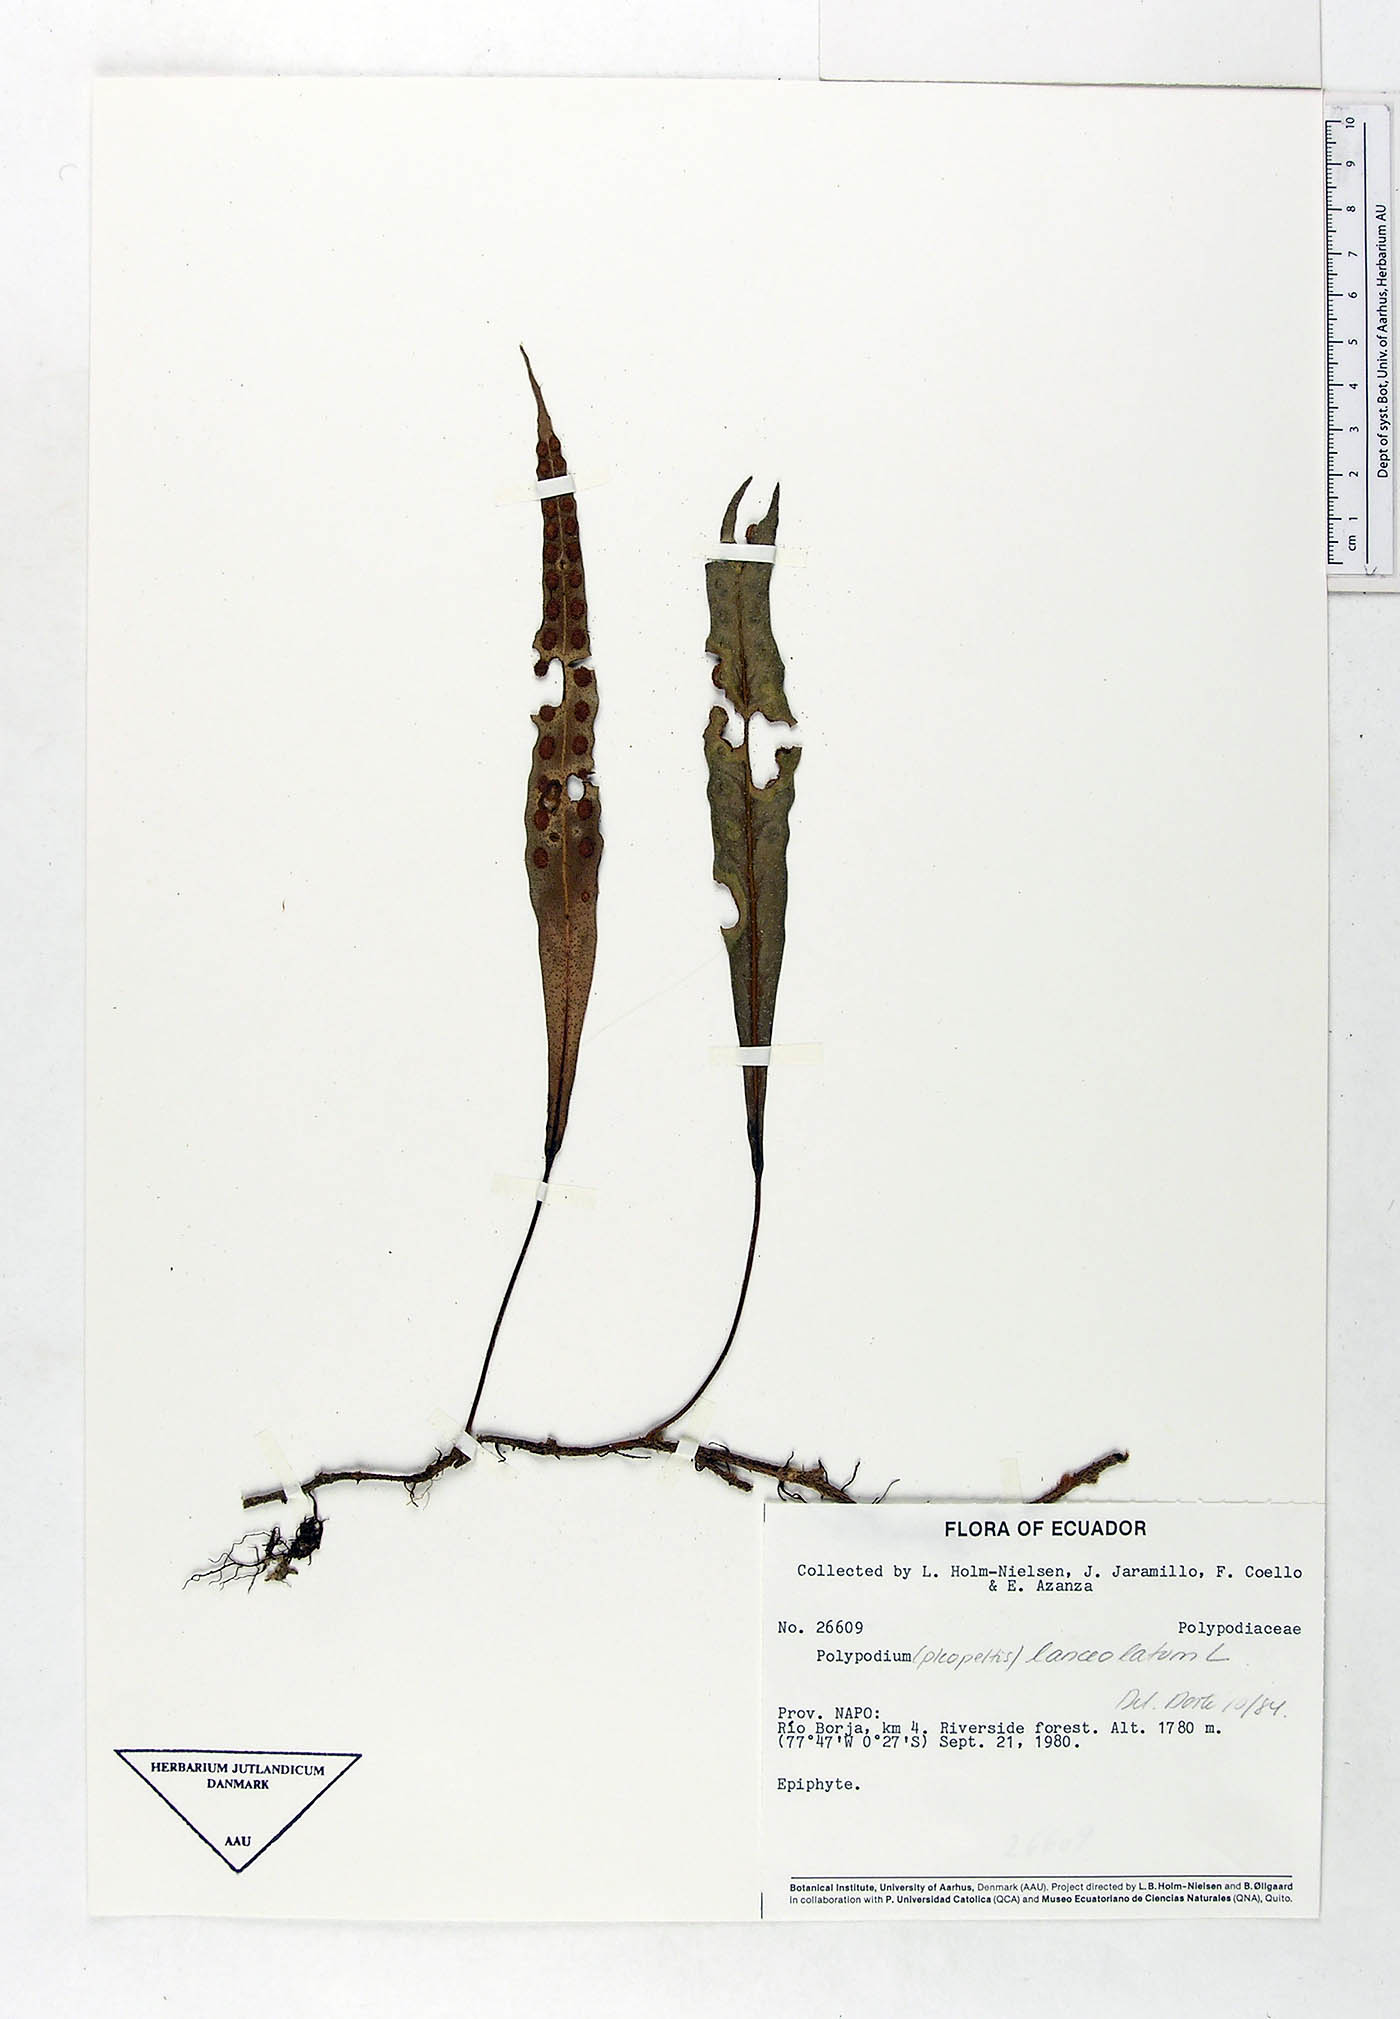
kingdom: Plantae
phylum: Tracheophyta
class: Polypodiopsida
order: Polypodiales
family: Polypodiaceae
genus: Pleopeltis
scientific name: Pleopeltis macrocarpa
